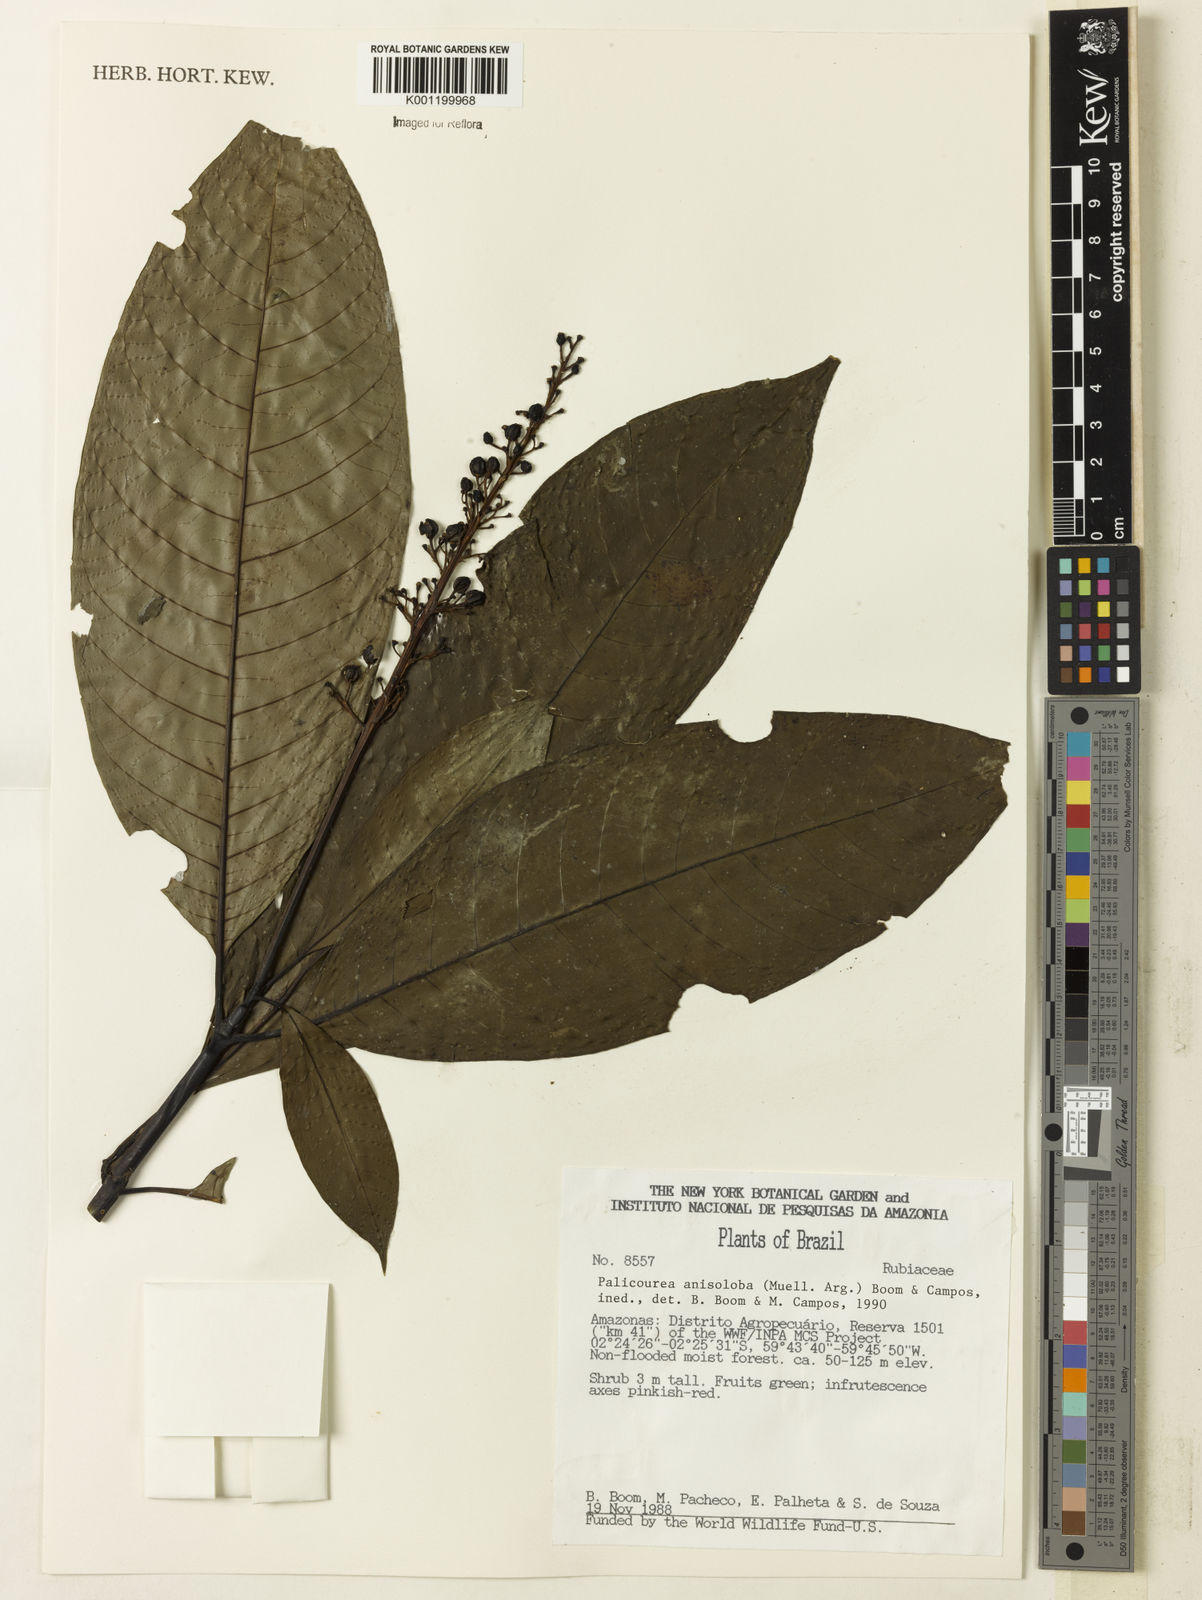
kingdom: Plantae
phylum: Tracheophyta
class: Magnoliopsida
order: Gentianales
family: Rubiaceae
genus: Palicourea
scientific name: Palicourea
